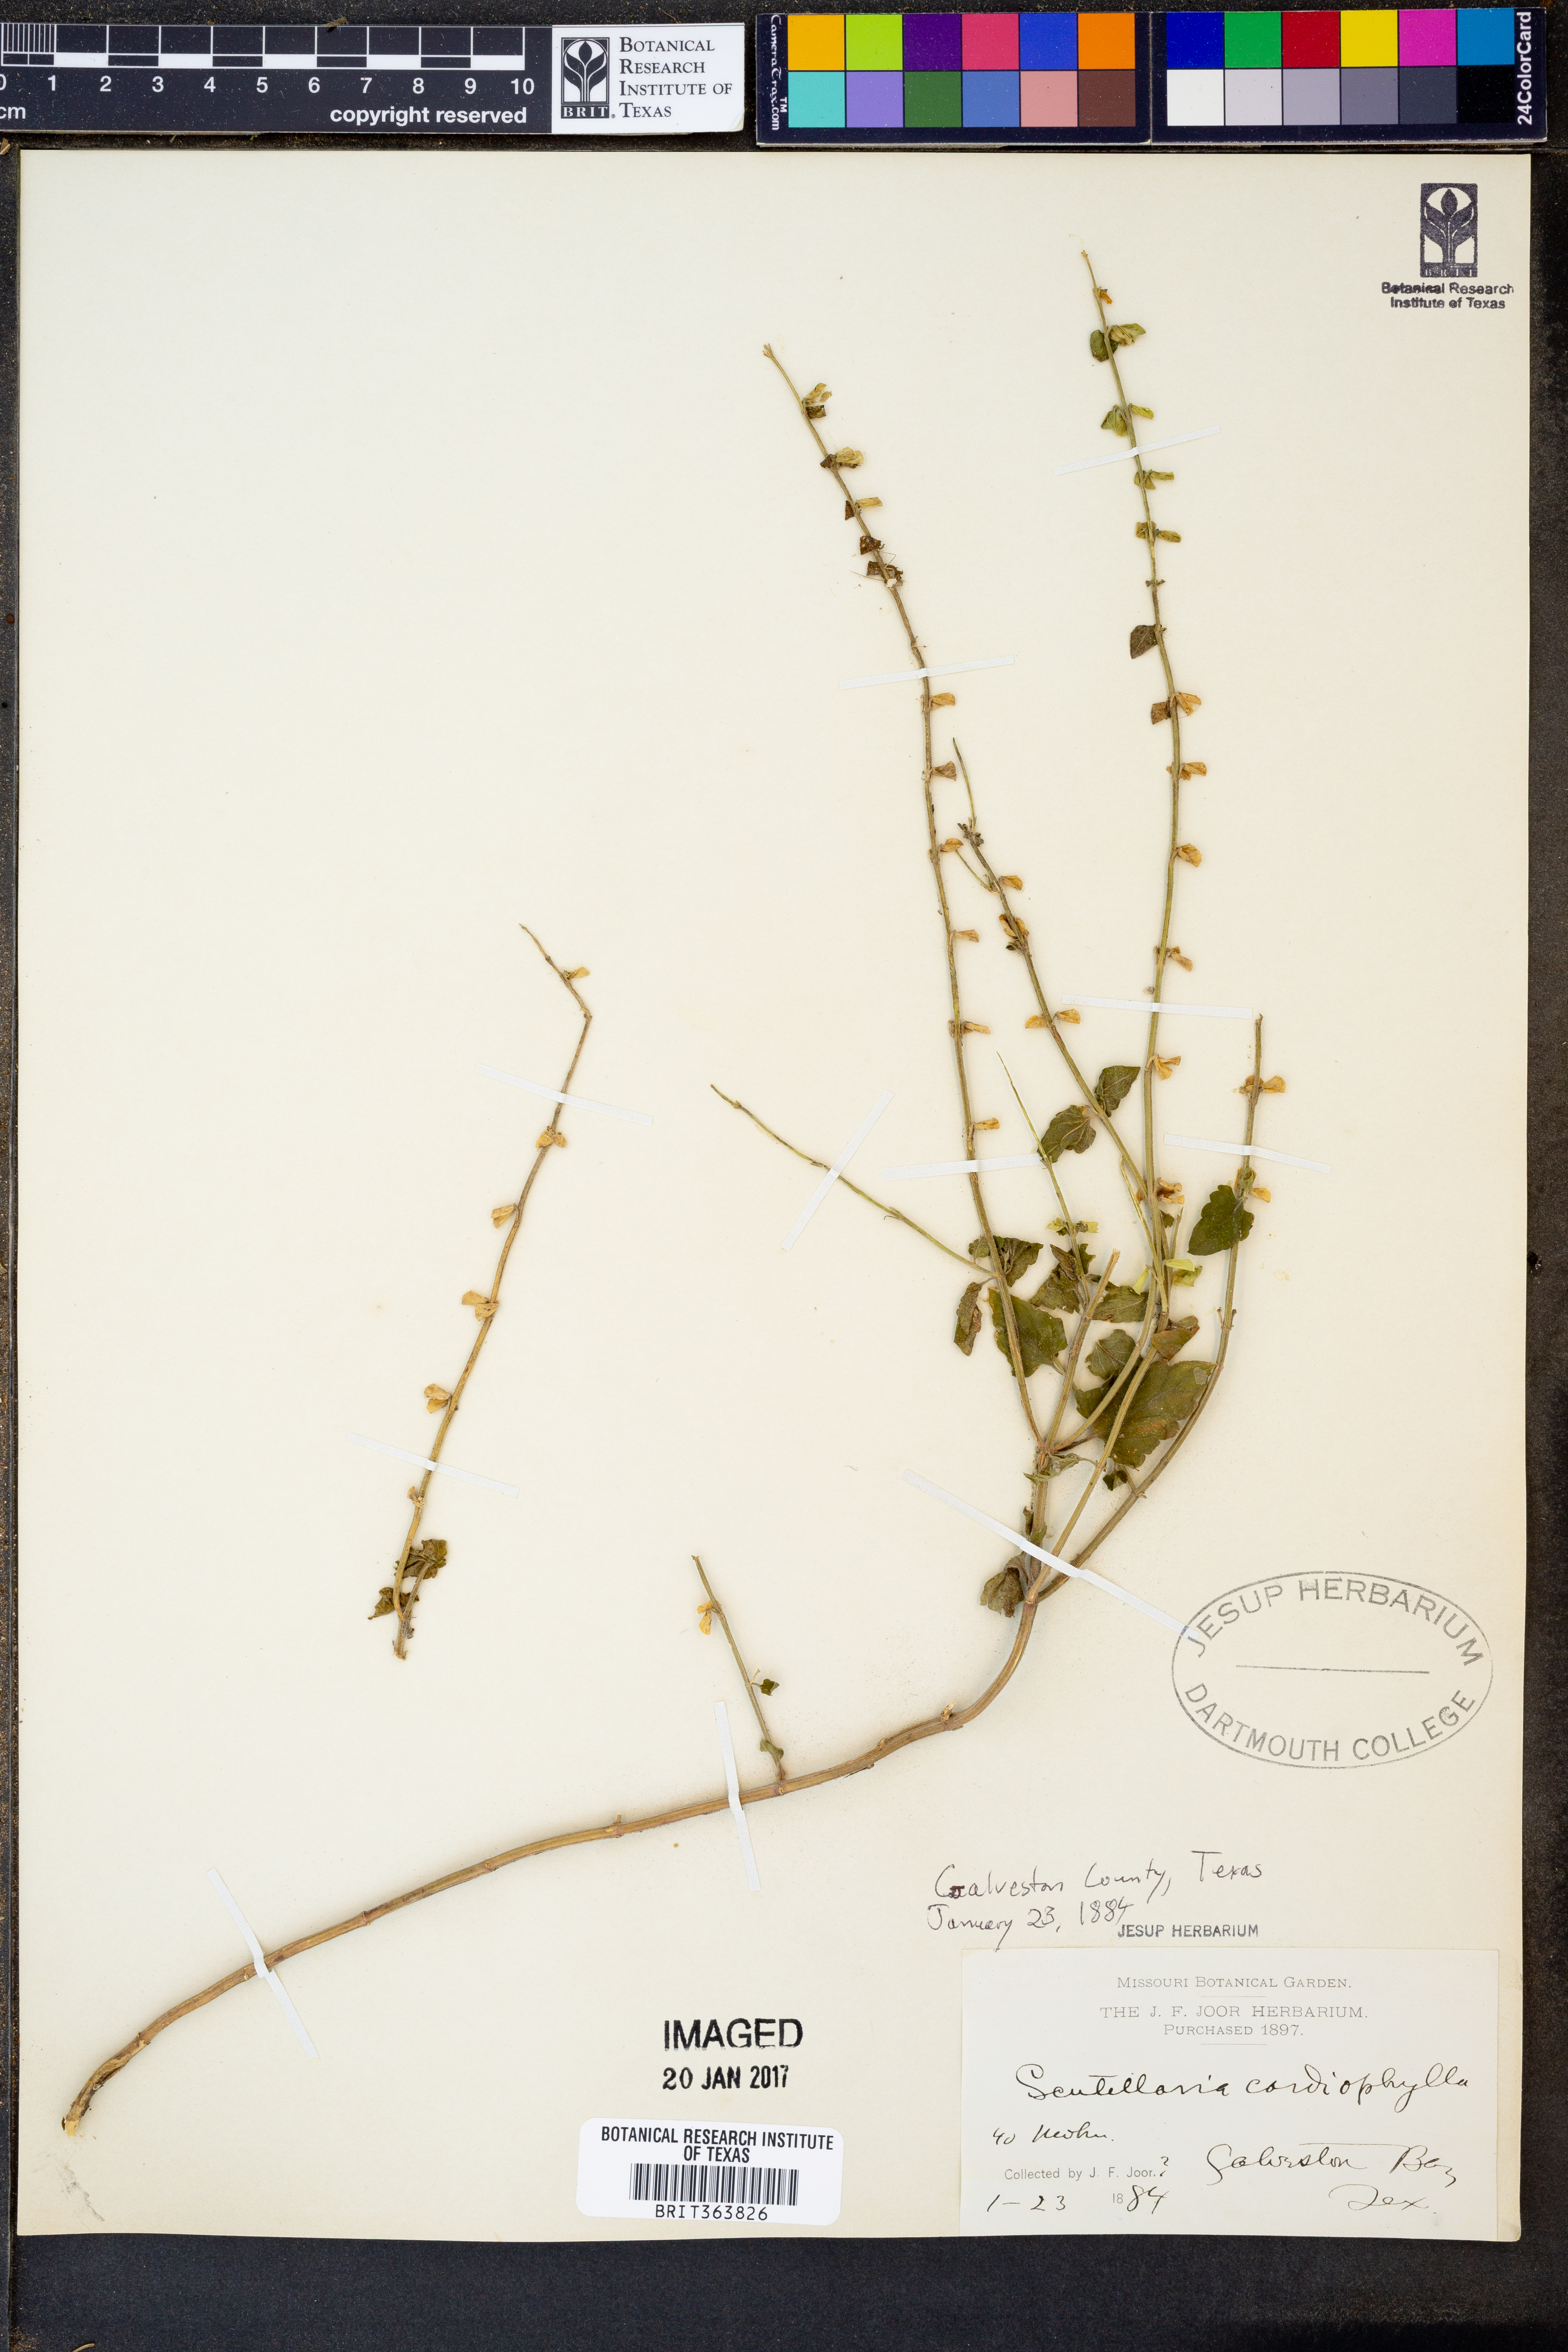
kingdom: Plantae
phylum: Tracheophyta
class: Magnoliopsida
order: Lamiales
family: Lamiaceae
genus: Scutellaria
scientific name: Scutellaria cardiophylla
